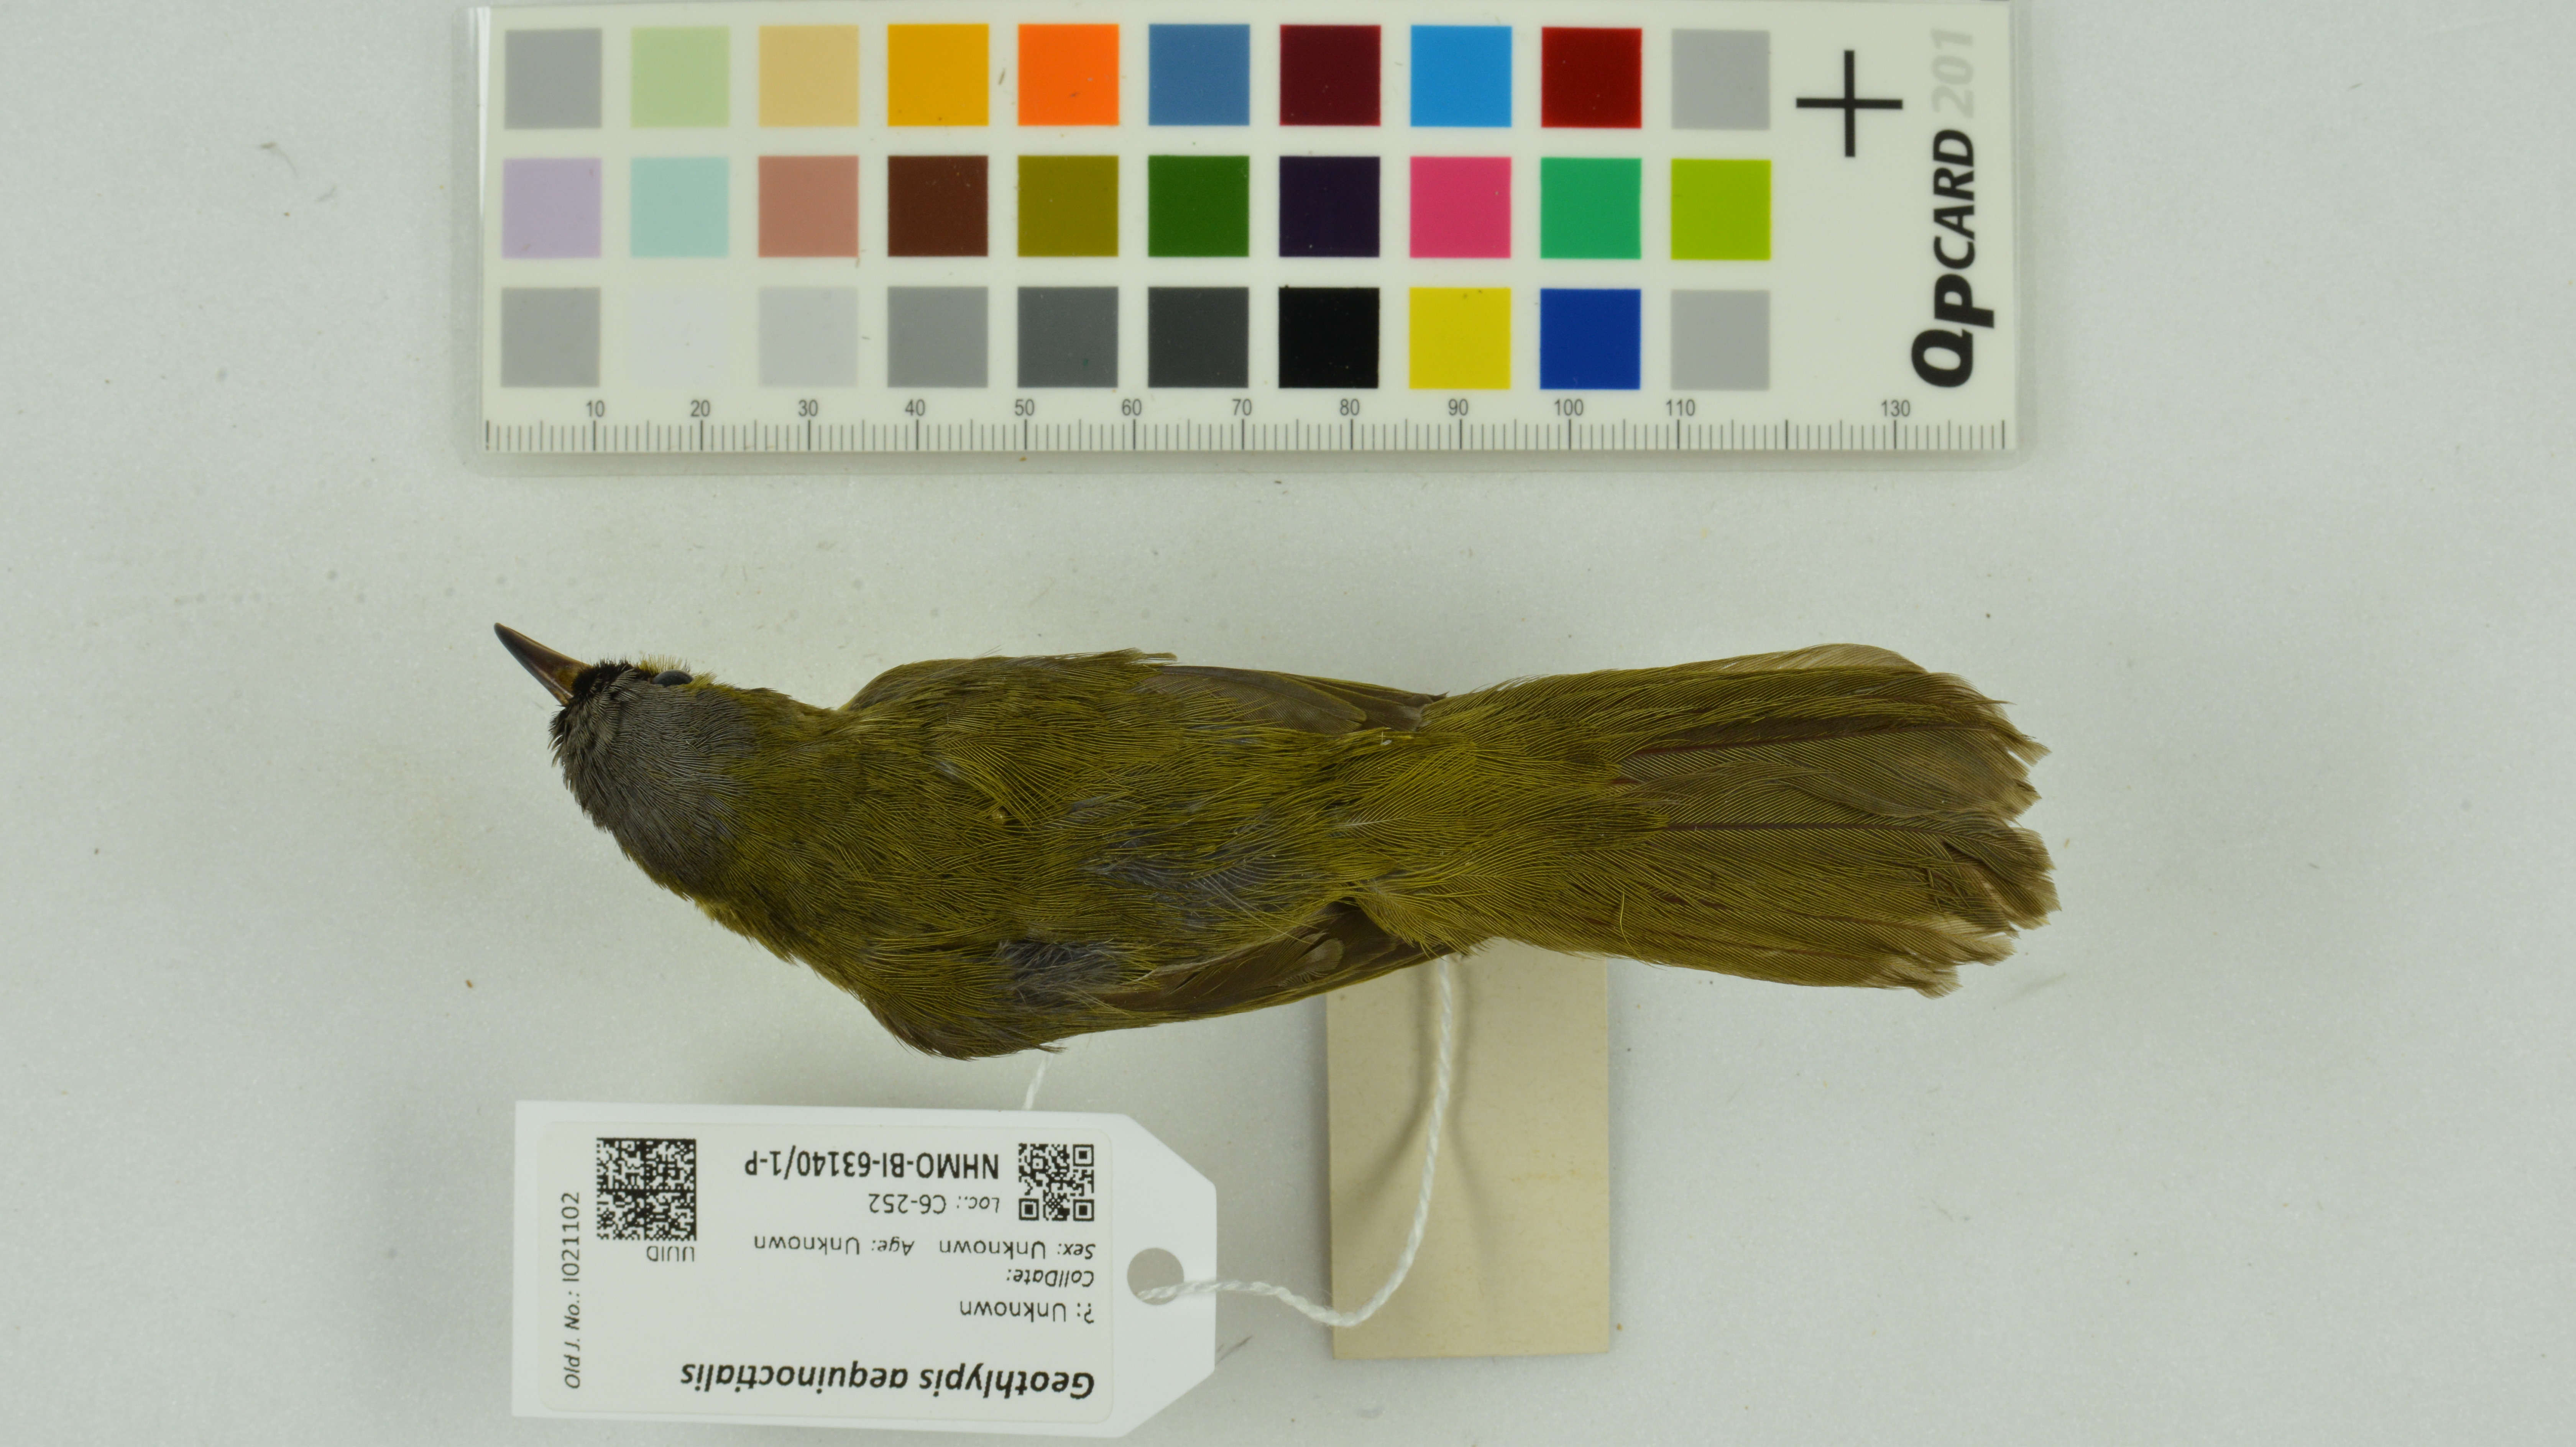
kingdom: Animalia
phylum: Chordata
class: Aves
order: Passeriformes
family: Parulidae
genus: Geothlypis
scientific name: Geothlypis aequinoctialis
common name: Masked yellowthroat
